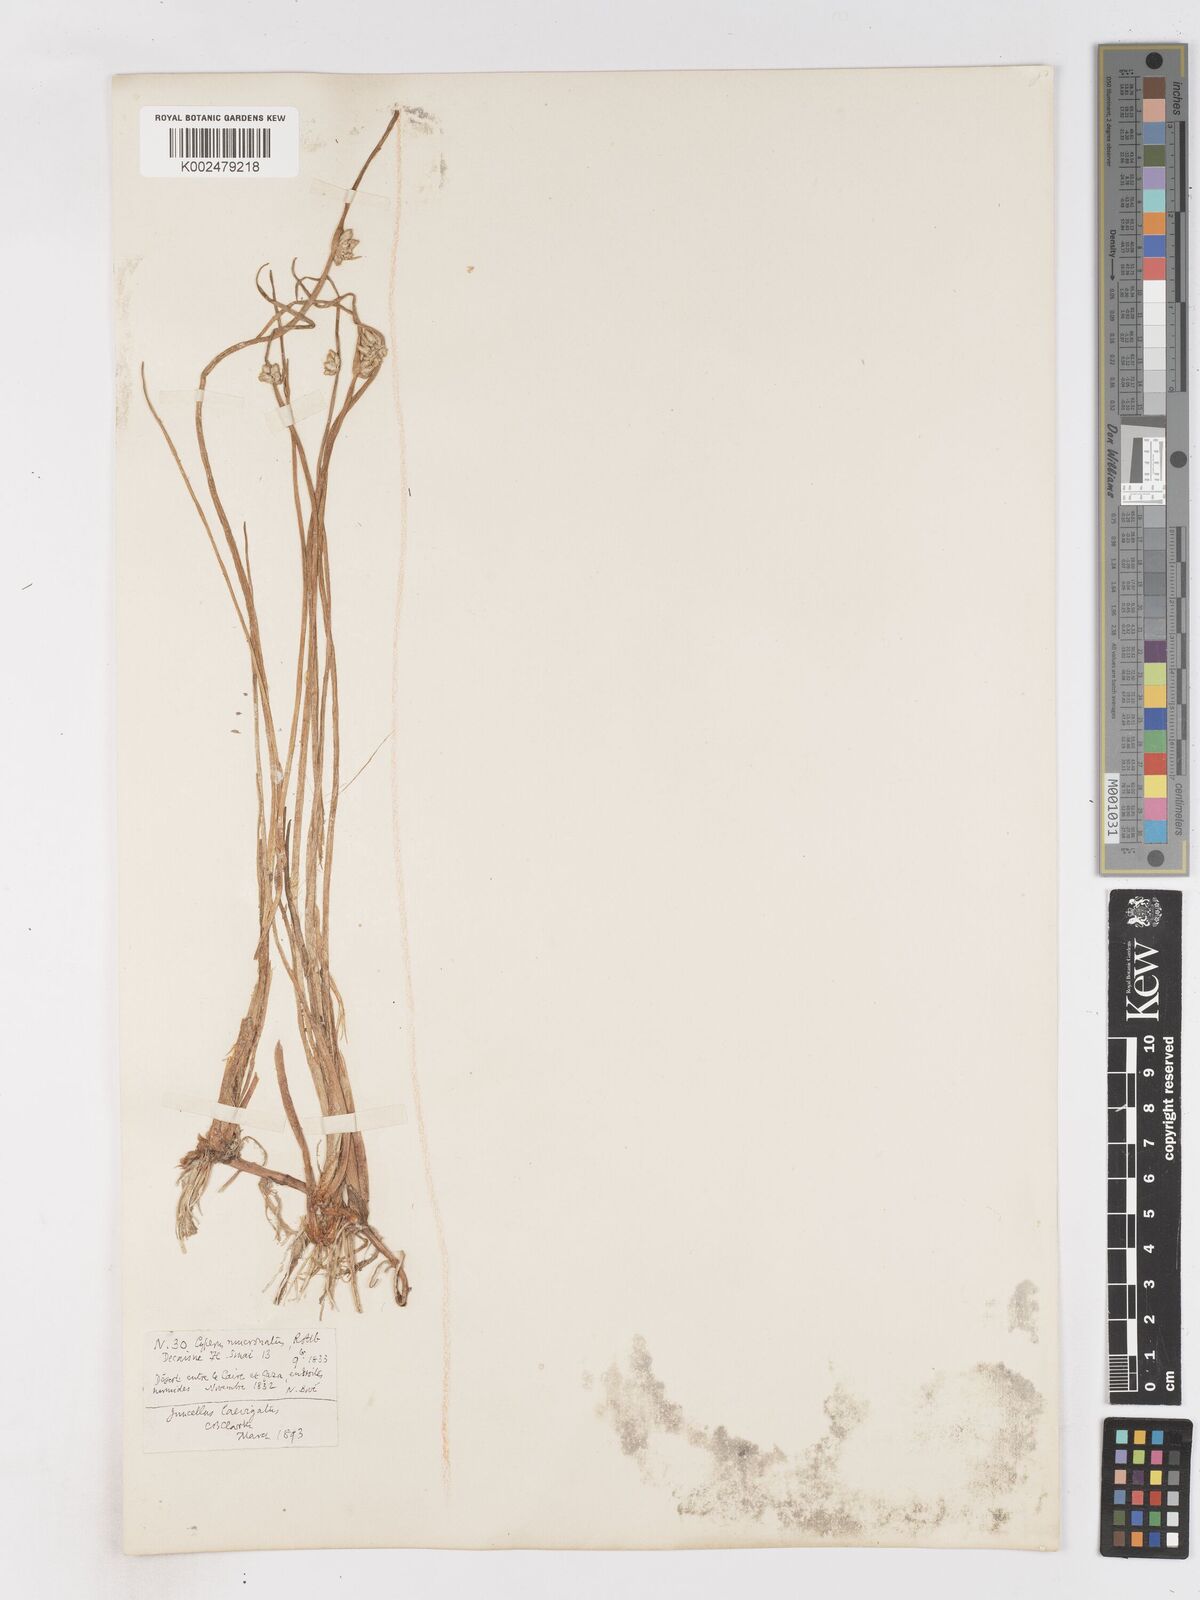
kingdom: Plantae
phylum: Tracheophyta
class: Liliopsida
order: Poales
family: Cyperaceae
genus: Cyperus
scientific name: Cyperus laevigatus
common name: Smooth flat sedge
